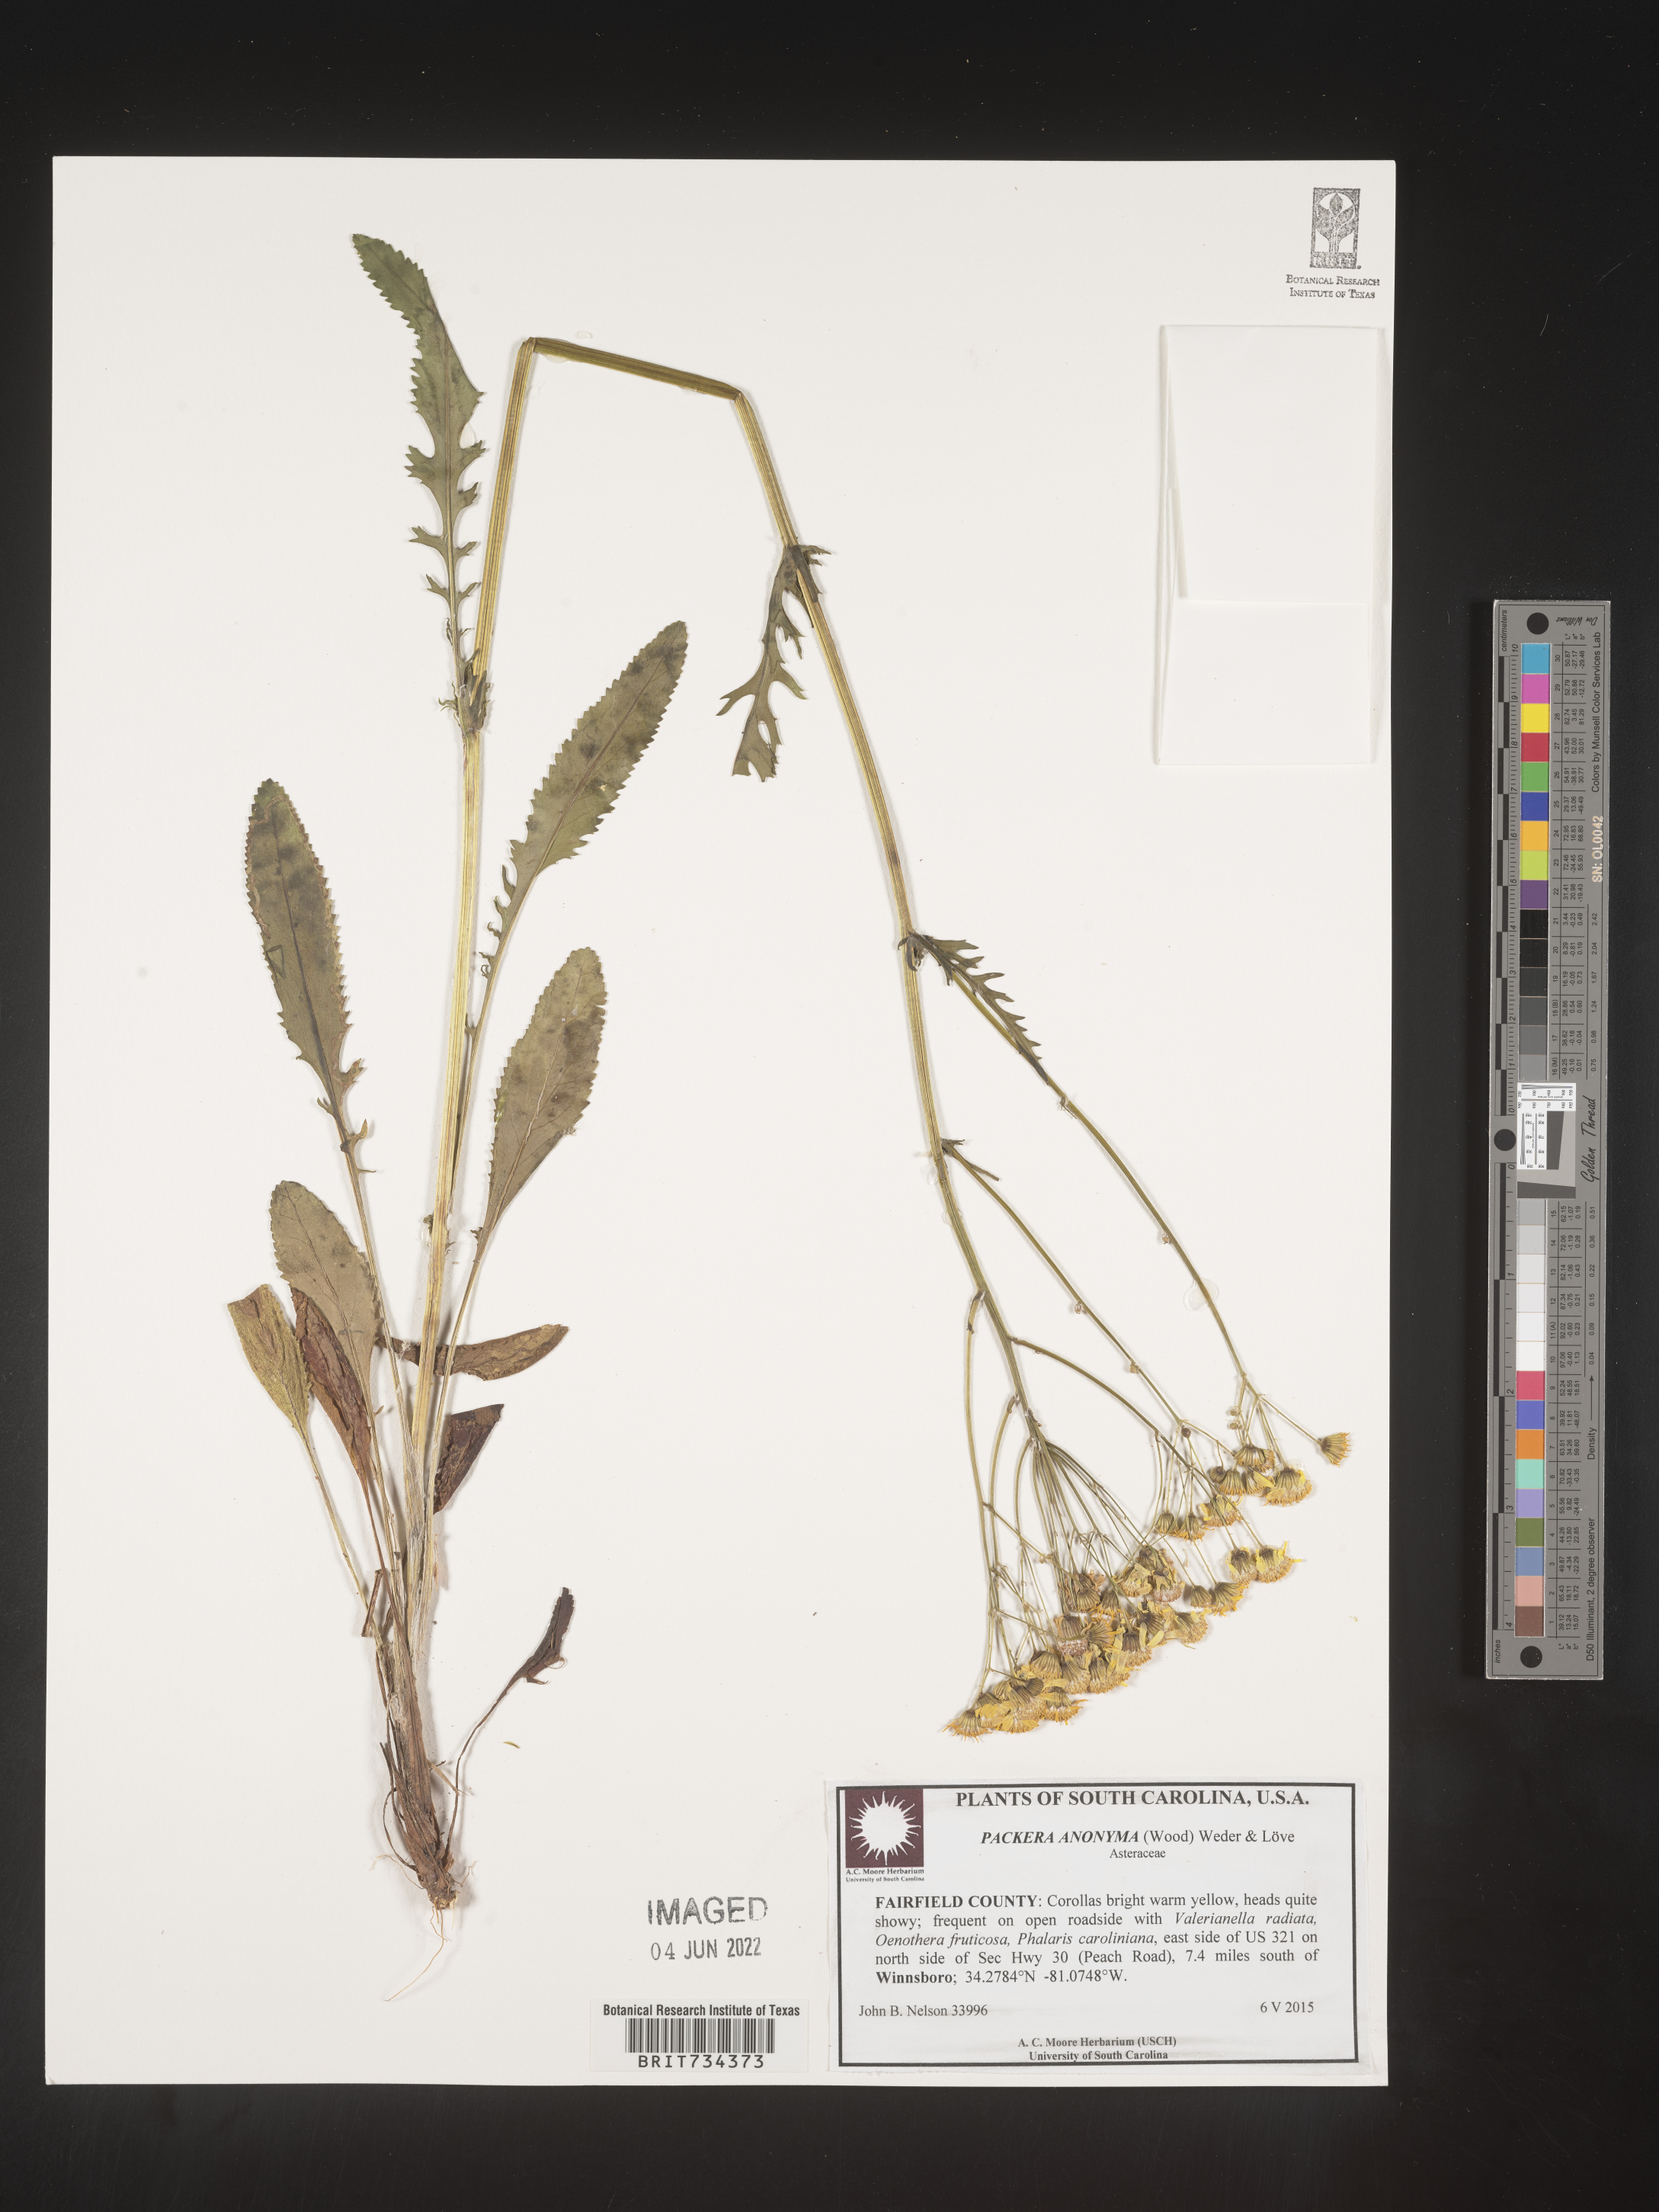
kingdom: Plantae
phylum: Tracheophyta
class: Magnoliopsida
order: Asterales
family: Asteraceae
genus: Packera
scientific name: Packera anonyma
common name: Small ragwort
